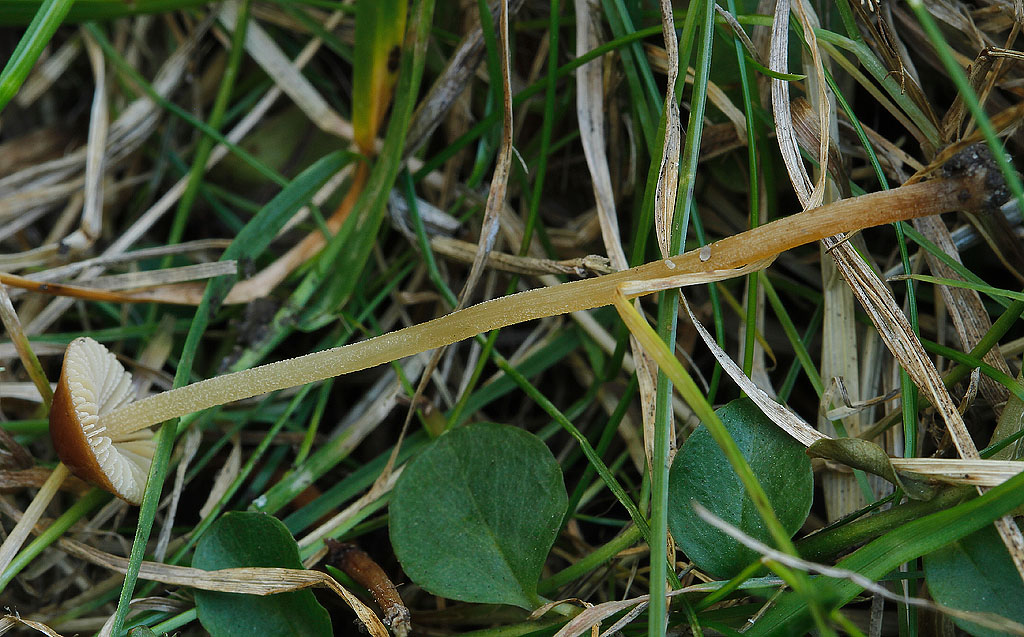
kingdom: Fungi
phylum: Basidiomycota
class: Agaricomycetes
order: Agaricales
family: Bolbitiaceae
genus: Conocybe
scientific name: Conocybe rickeniana
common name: kastaniebrun keglehat
